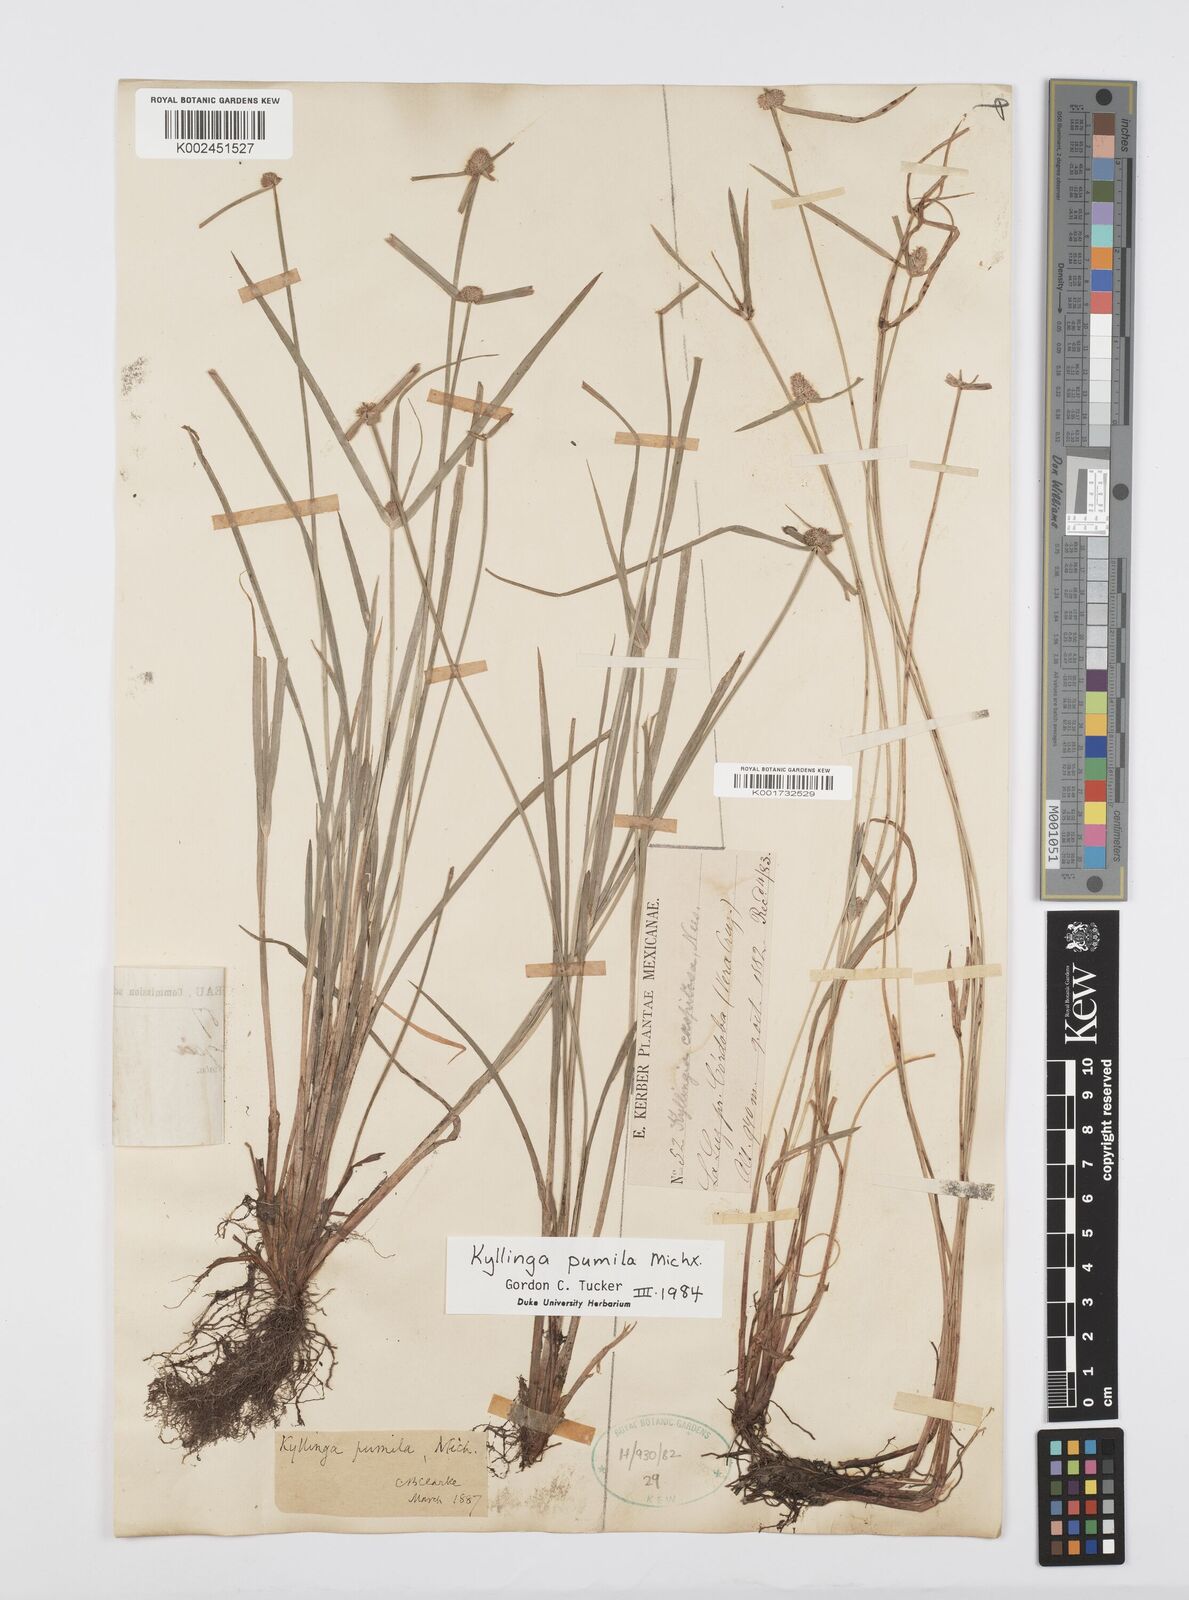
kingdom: Plantae
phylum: Tracheophyta
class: Liliopsida
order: Poales
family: Cyperaceae
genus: Cyperus
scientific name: Cyperus hortensis
